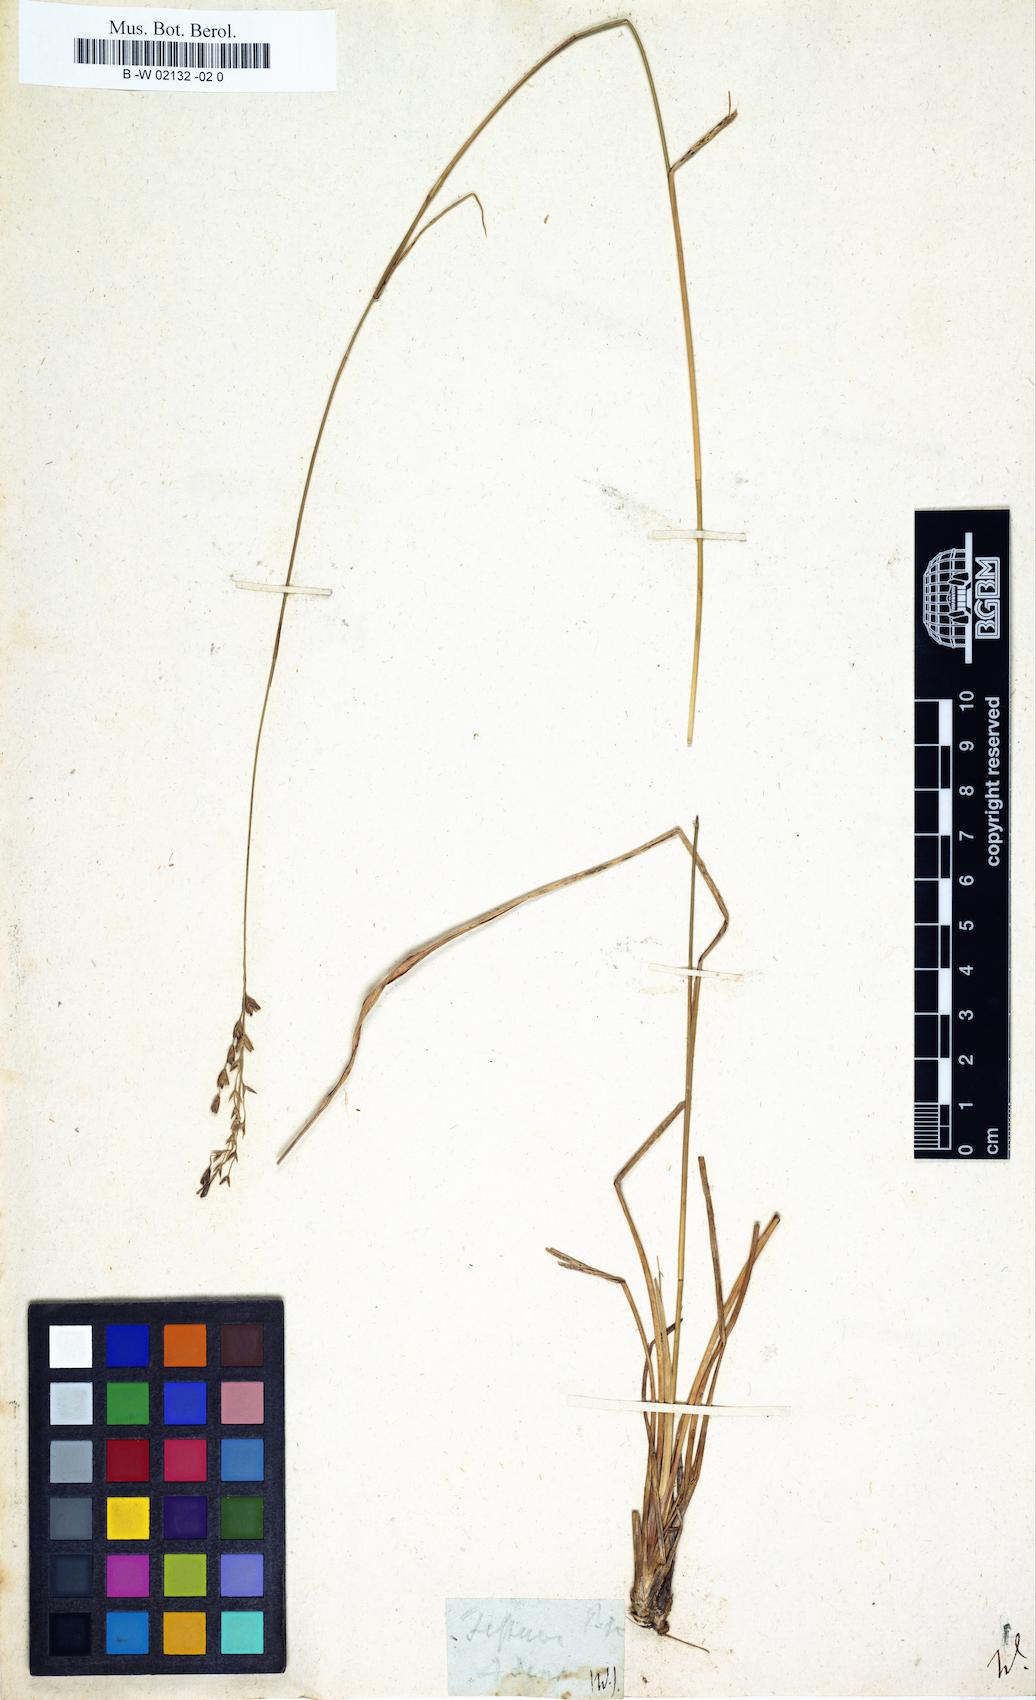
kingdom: Plantae
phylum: Tracheophyta
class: Liliopsida
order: Poales
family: Poaceae
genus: Tridens
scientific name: Tridens flavus
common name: Purpletop
